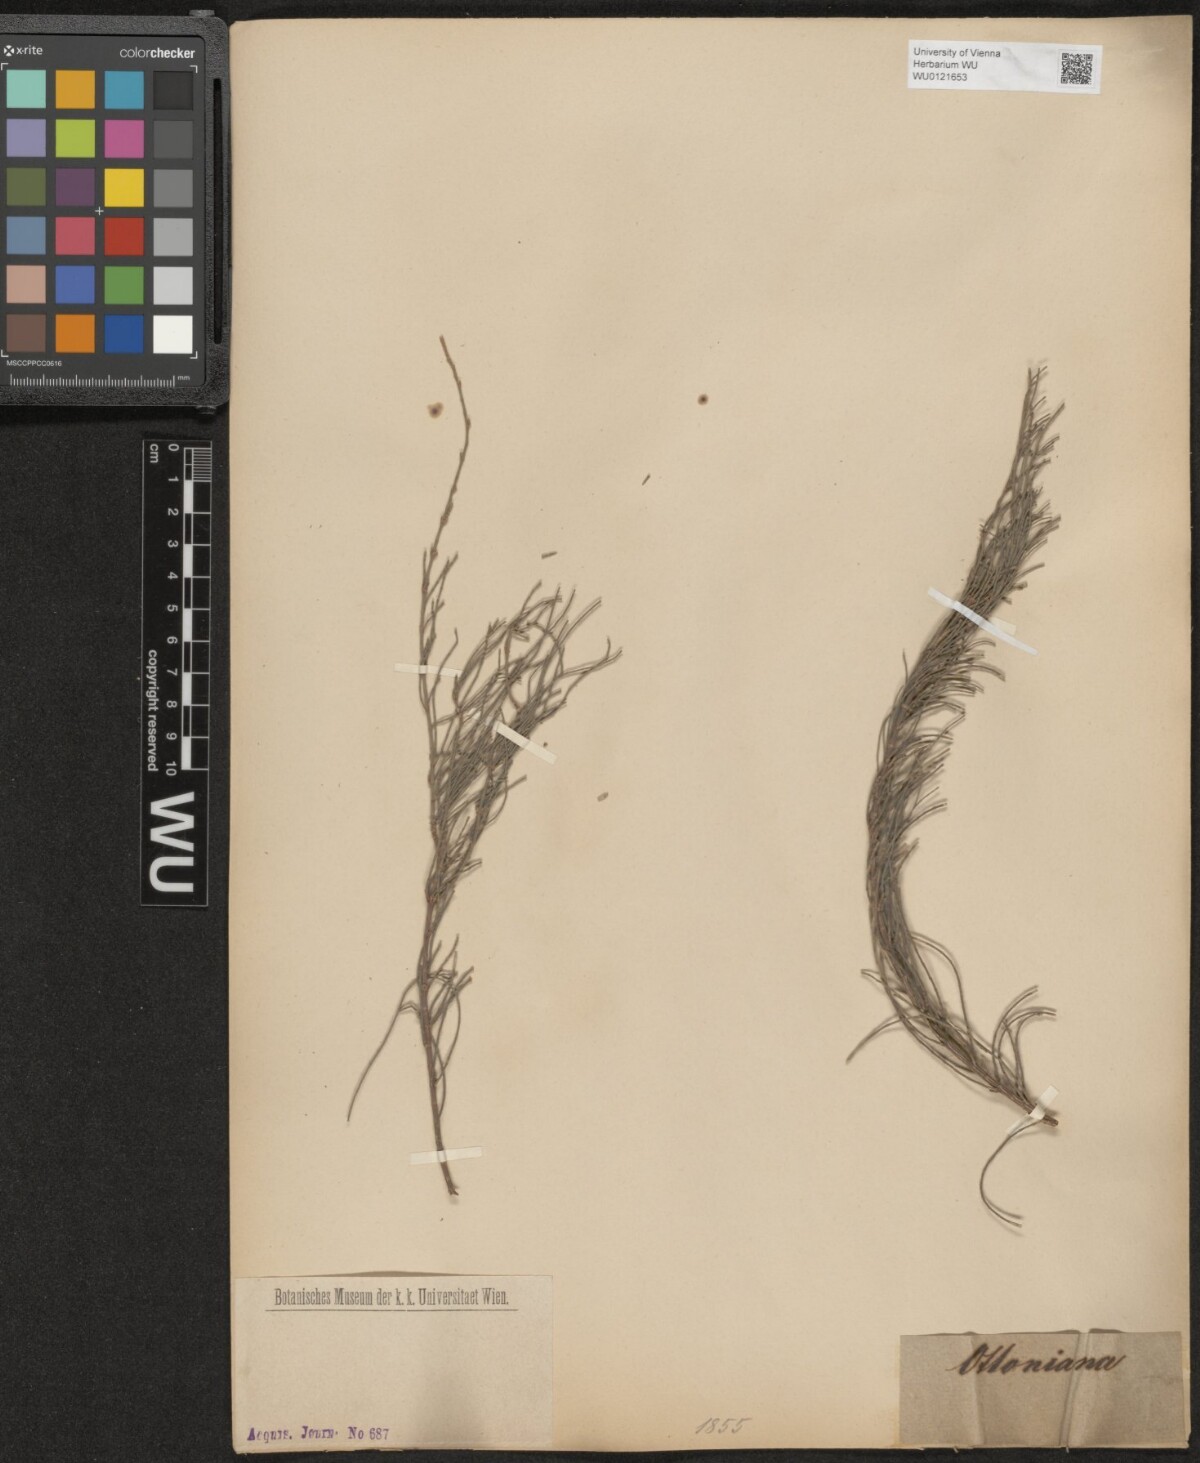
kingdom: Plantae
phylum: Tracheophyta
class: Magnoliopsida
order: Fagales
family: Casuarinaceae
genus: Casuarina
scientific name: Casuarina
